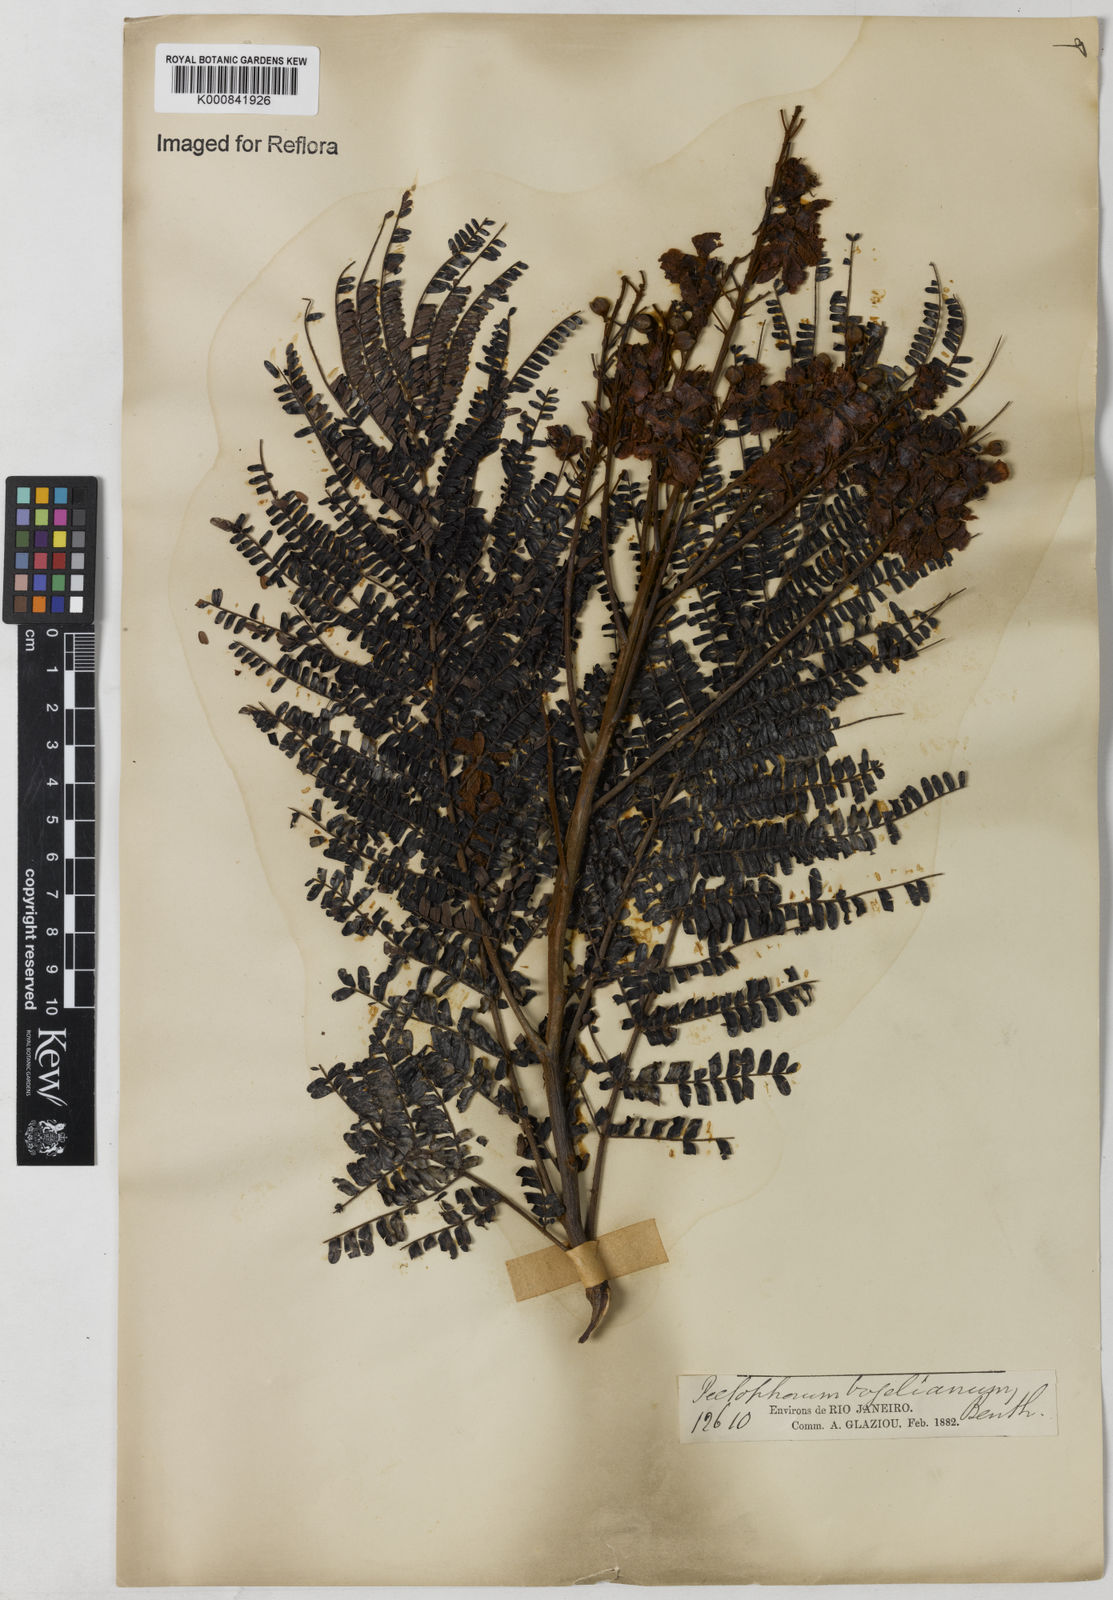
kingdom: Plantae
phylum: Tracheophyta
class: Magnoliopsida
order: Fabales
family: Fabaceae
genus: Peltophorum
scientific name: Peltophorum dubium
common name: Horsebush
